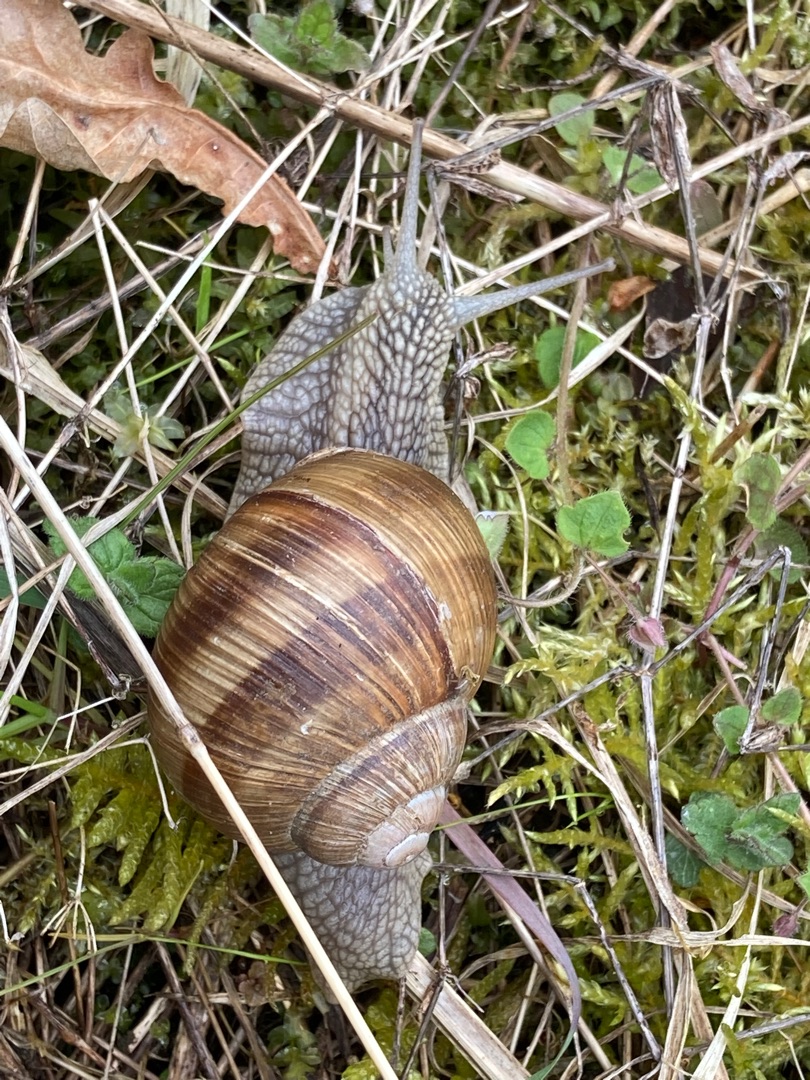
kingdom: Animalia
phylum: Mollusca
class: Gastropoda
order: Stylommatophora
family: Helicidae
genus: Helix
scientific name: Helix pomatia
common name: Vinbjergsnegl
